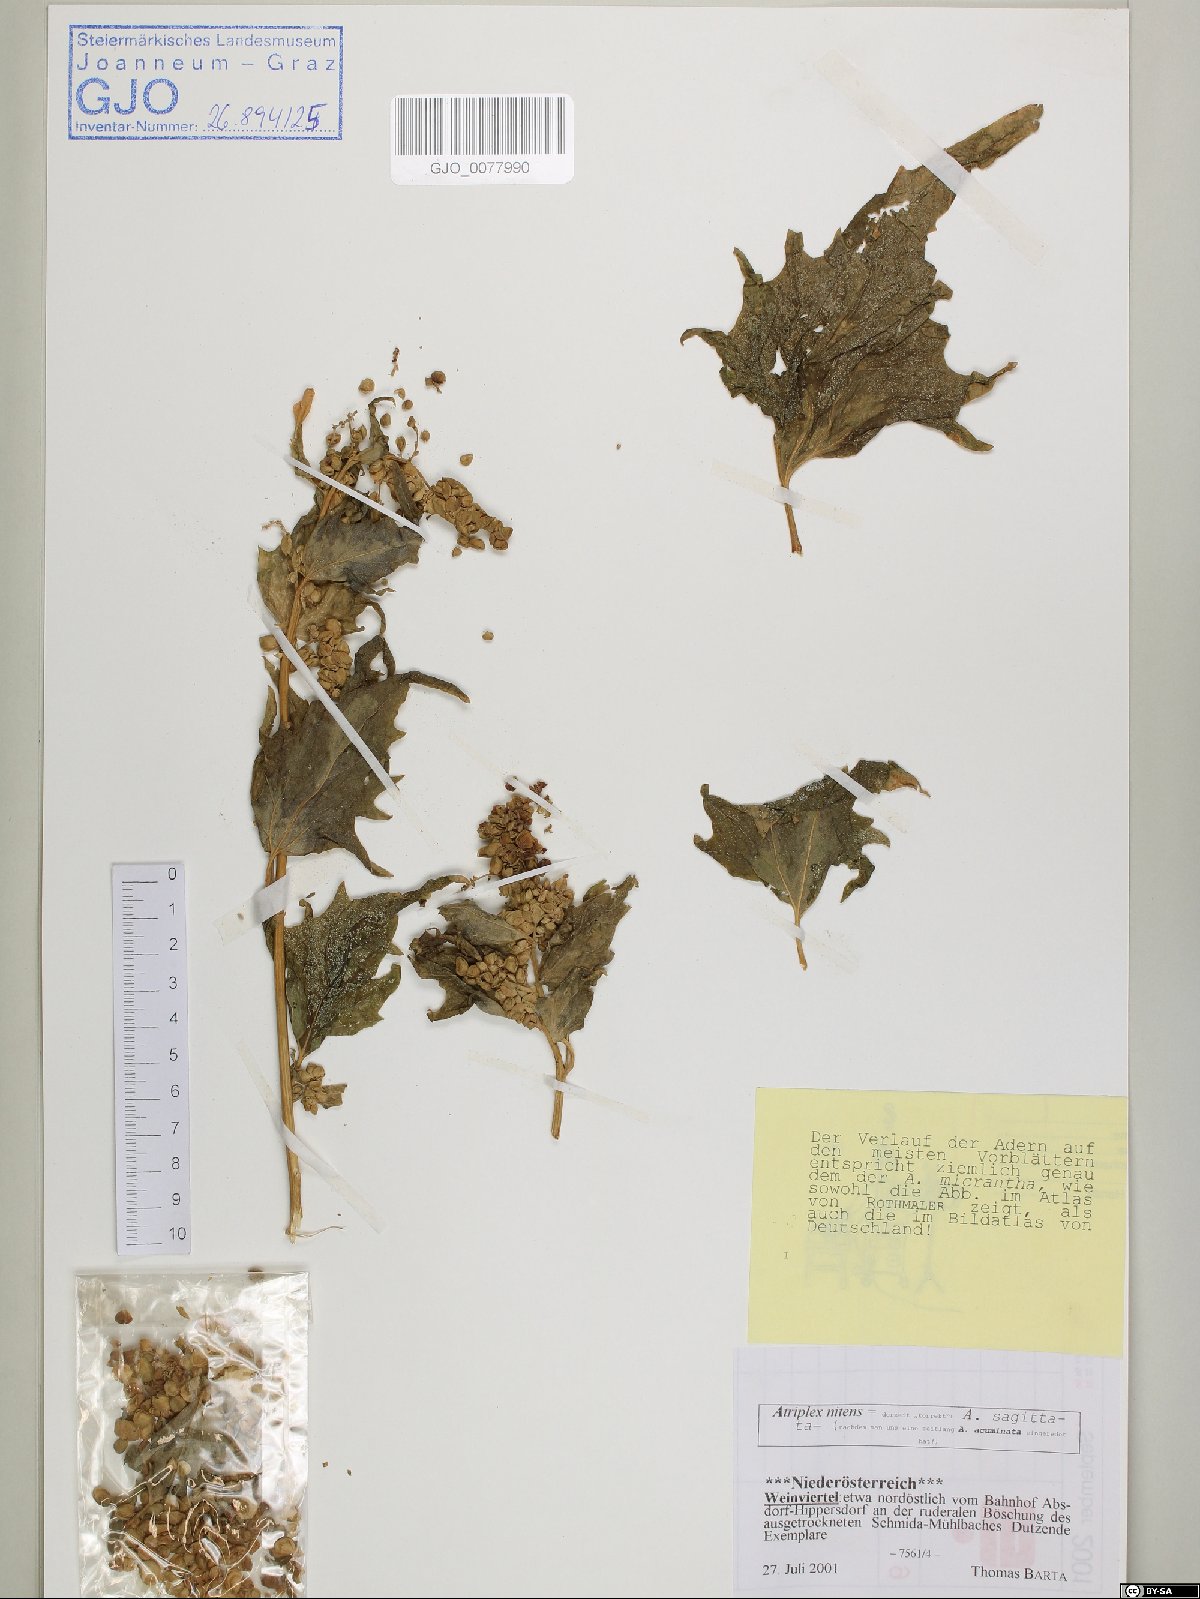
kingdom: Plantae
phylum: Tracheophyta
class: Magnoliopsida
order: Caryophyllales
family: Amaranthaceae
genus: Atriplex
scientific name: Atriplex sagittata
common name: Purple orache
